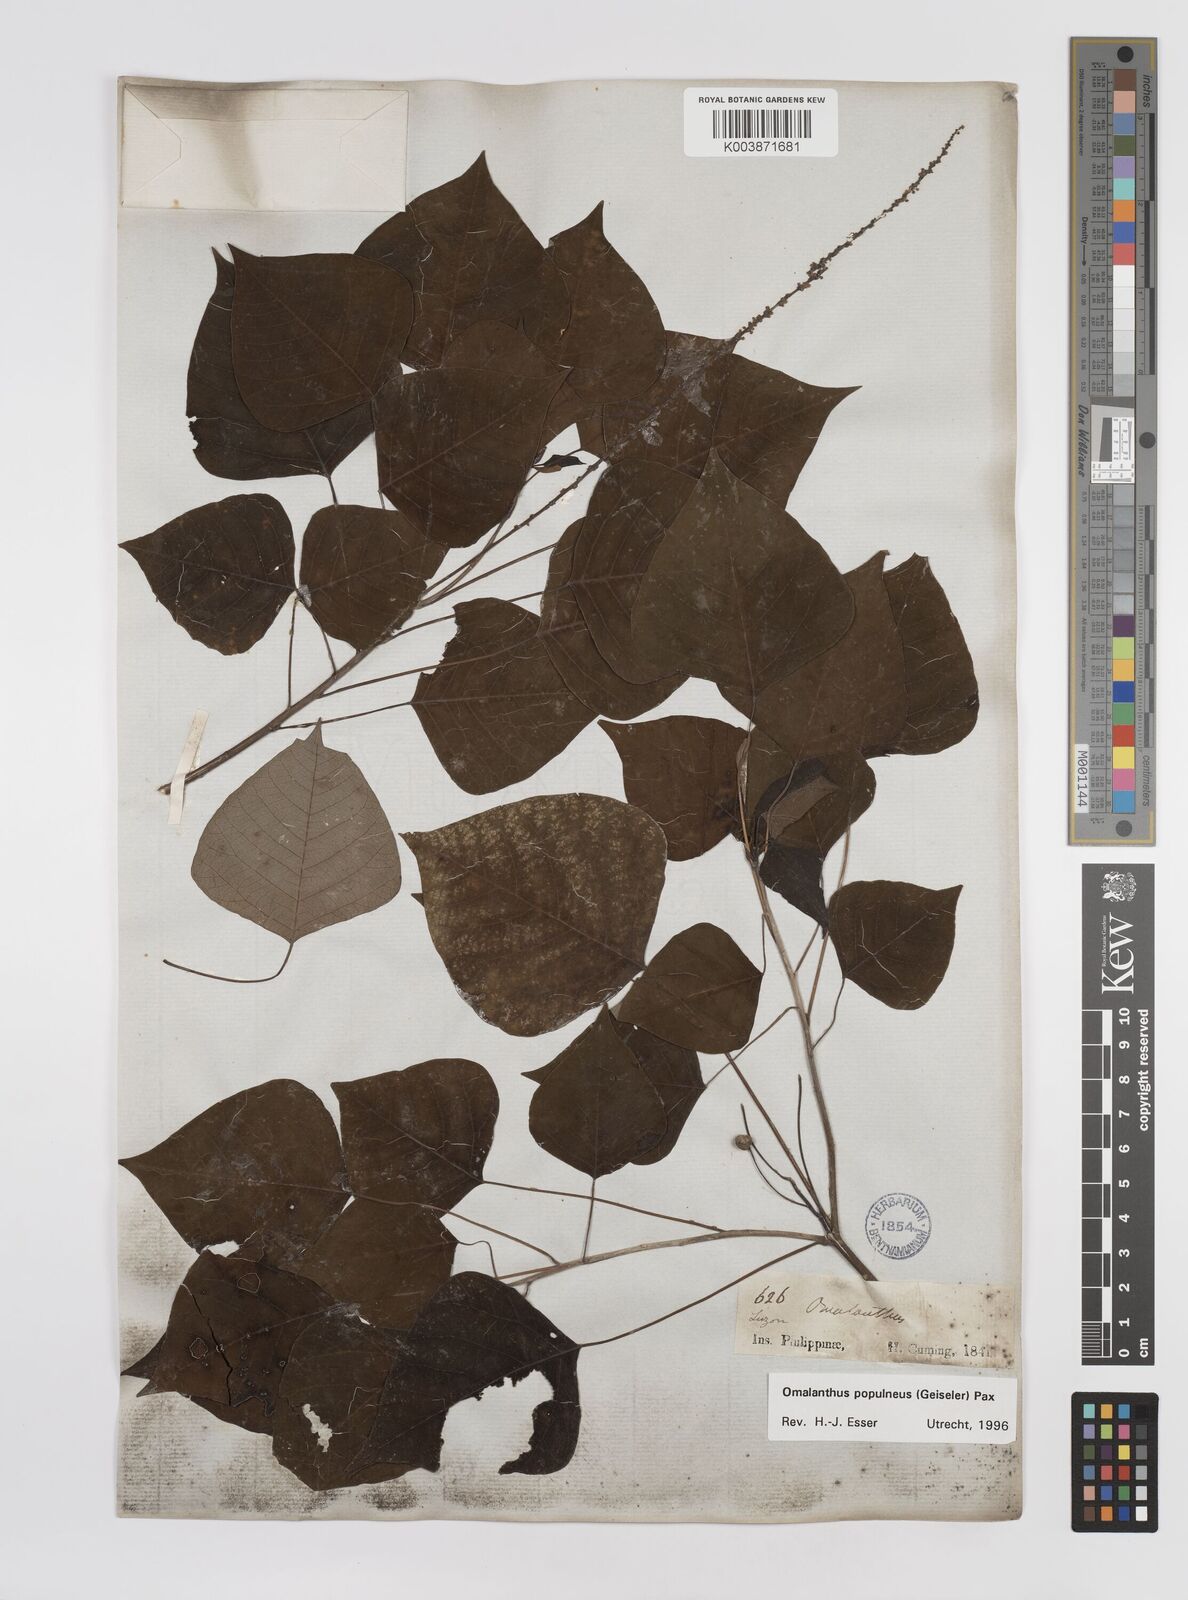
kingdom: Plantae
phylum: Tracheophyta
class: Magnoliopsida
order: Malpighiales
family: Euphorbiaceae
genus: Homalanthus
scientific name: Homalanthus populneus
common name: Spurge
